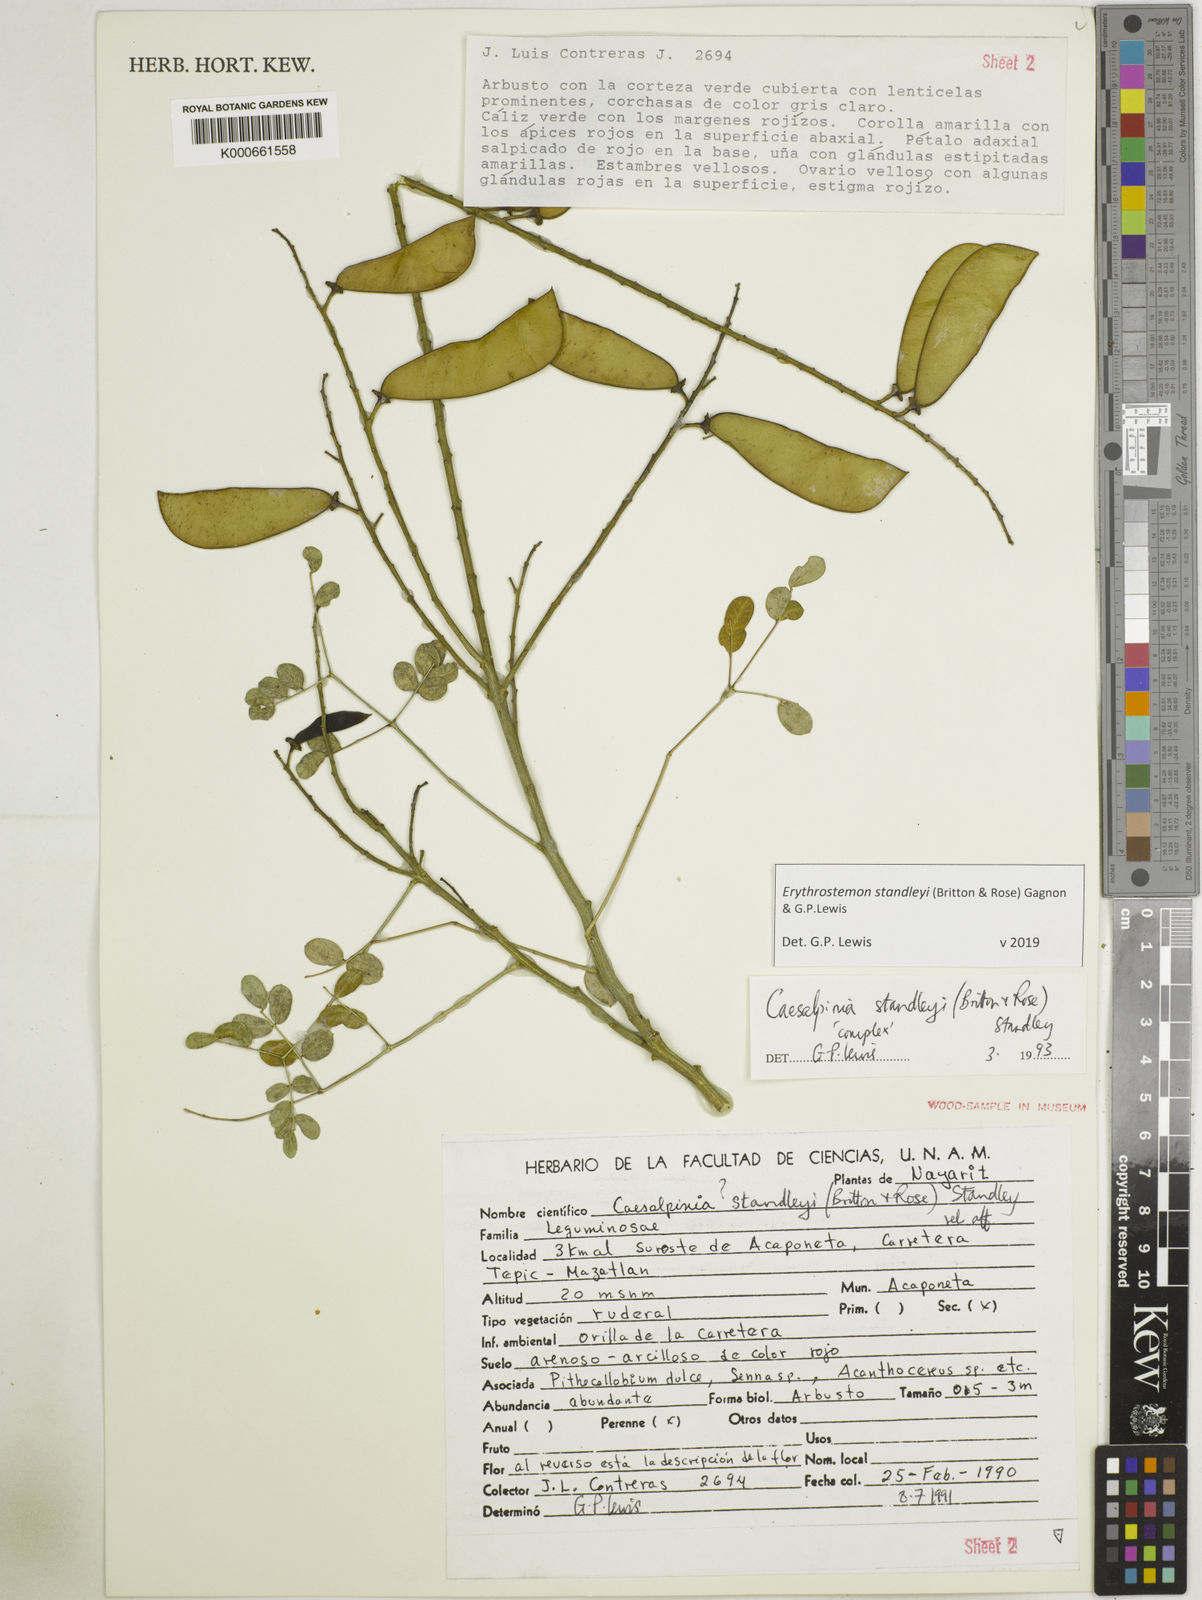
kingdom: Plantae
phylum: Tracheophyta
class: Magnoliopsida
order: Fabales
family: Fabaceae
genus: Erythrostemon
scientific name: Erythrostemon standleyi
